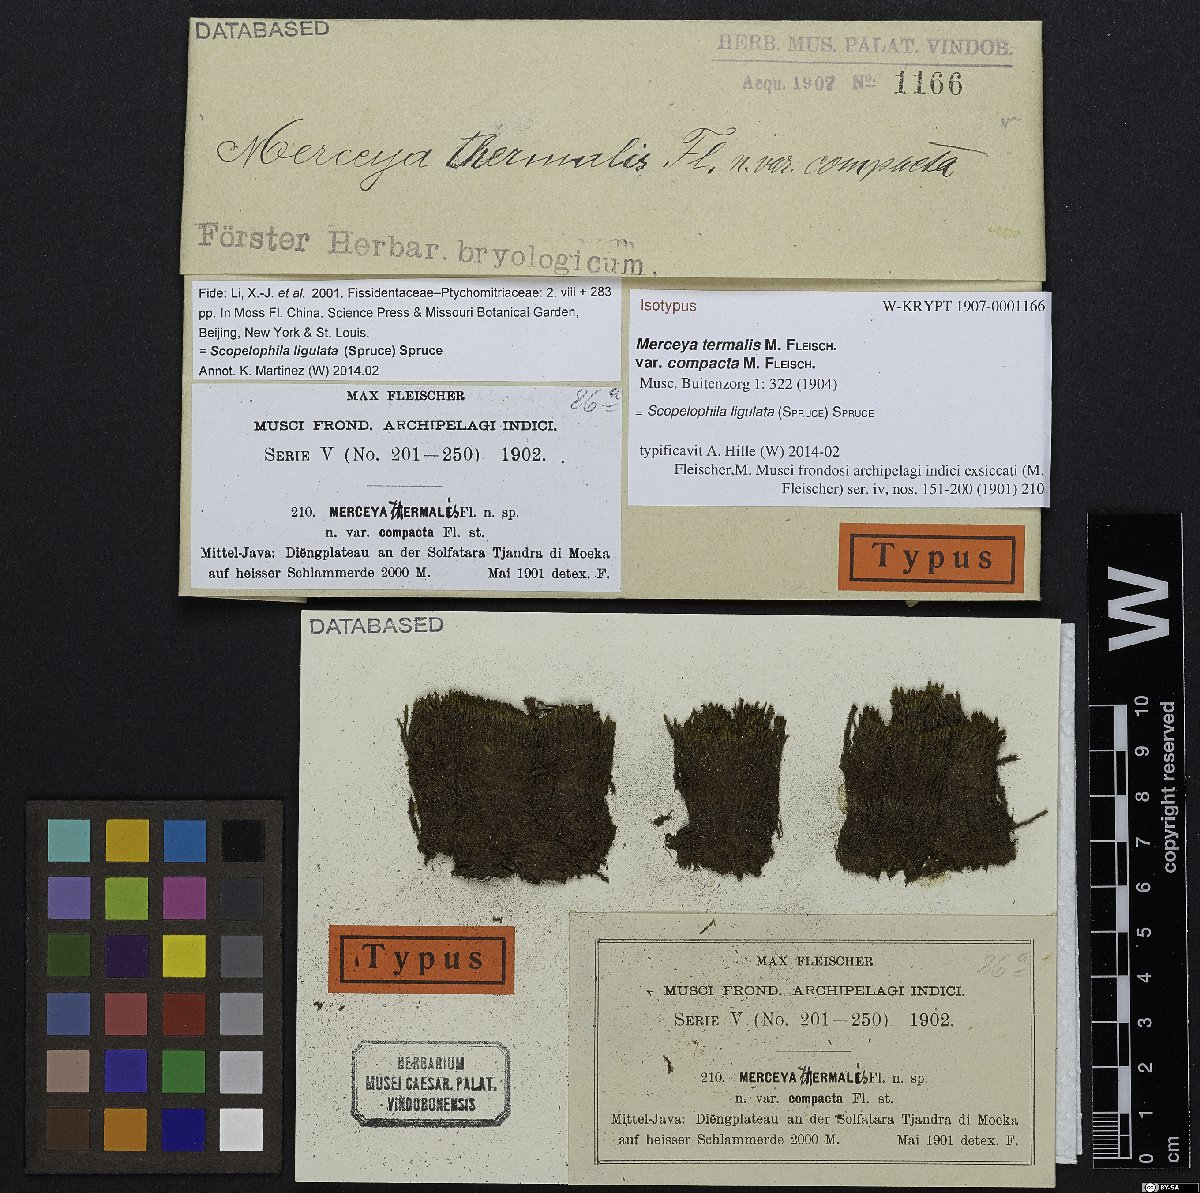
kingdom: Plantae
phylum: Bryophyta
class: Bryopsida
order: Pottiales
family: Pottiaceae
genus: Scopelophila
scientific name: Scopelophila ligulata
